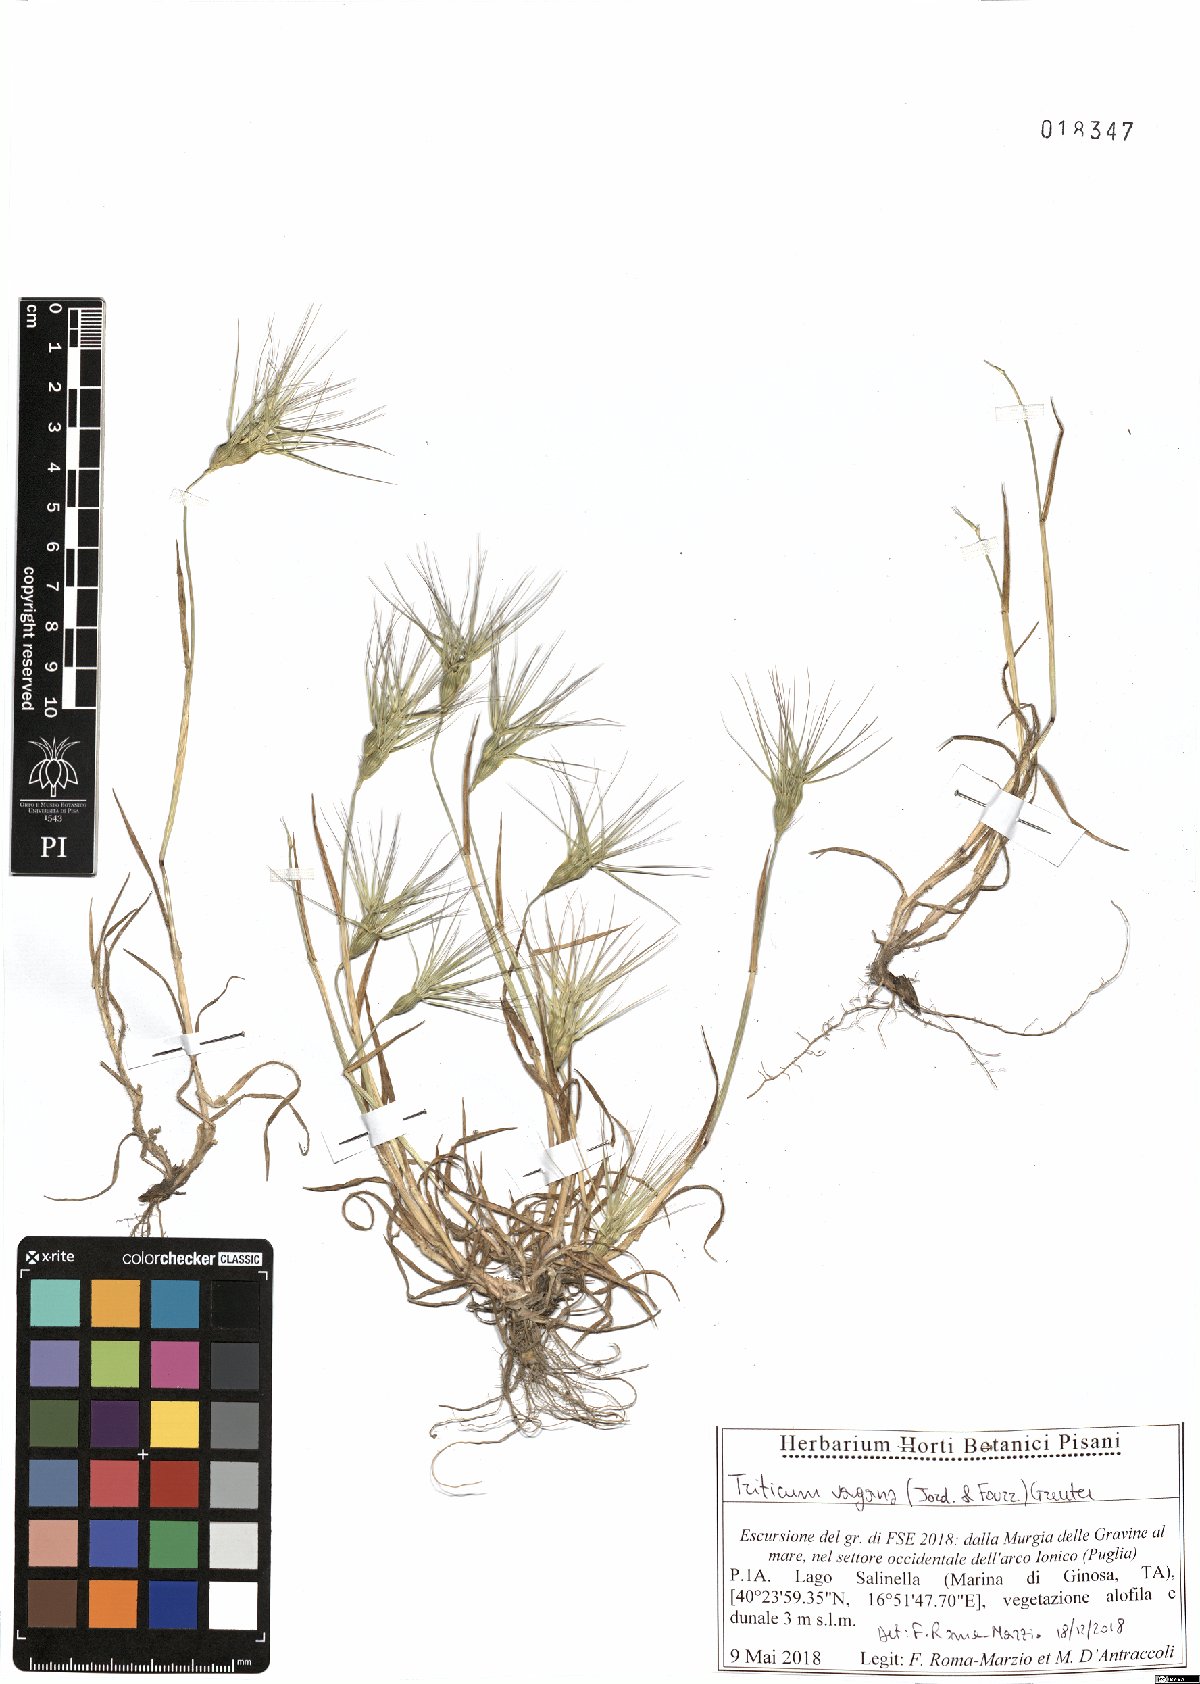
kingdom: Plantae
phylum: Tracheophyta
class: Liliopsida
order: Poales
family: Poaceae
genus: Aegilops
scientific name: Aegilops geniculata
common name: Ovate goat grass
